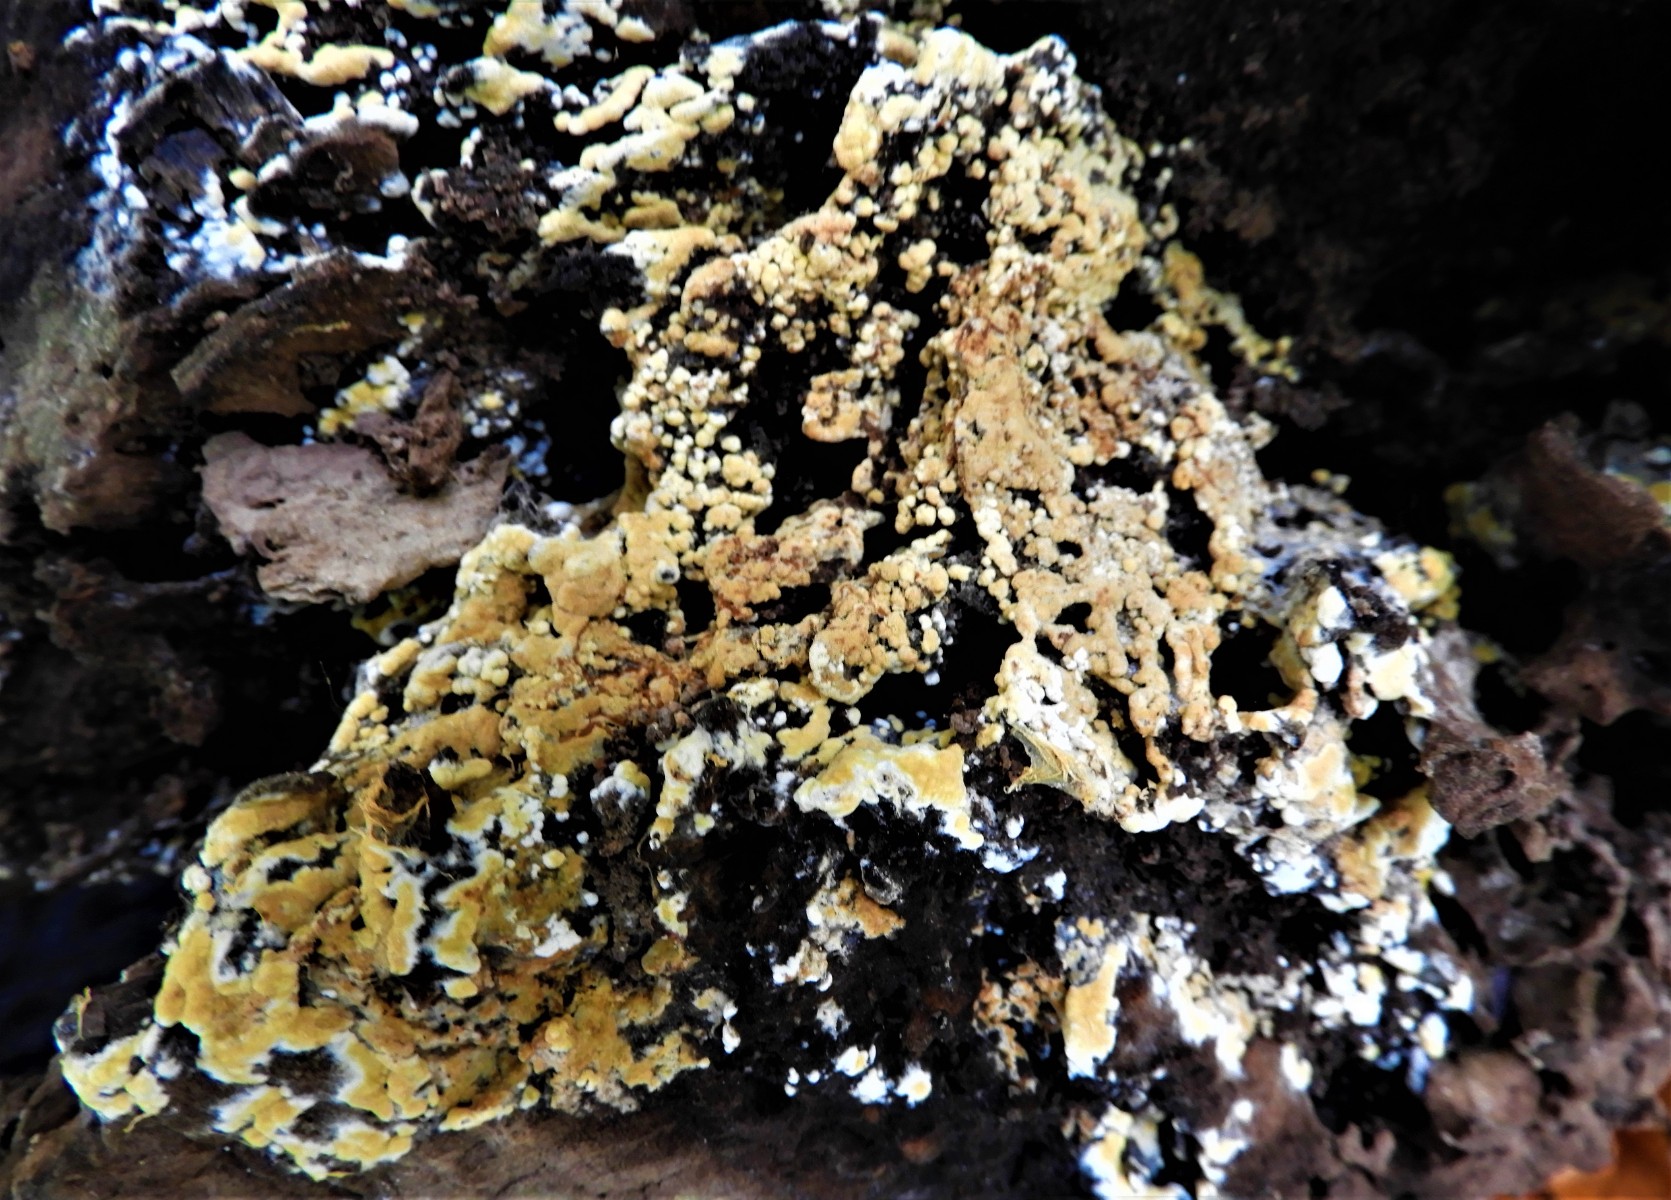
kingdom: Fungi
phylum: Basidiomycota
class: Agaricomycetes
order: Cantharellales
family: Botryobasidiaceae
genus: Botryobasidium
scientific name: Botryobasidium aureum
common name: gylden spindhinde
